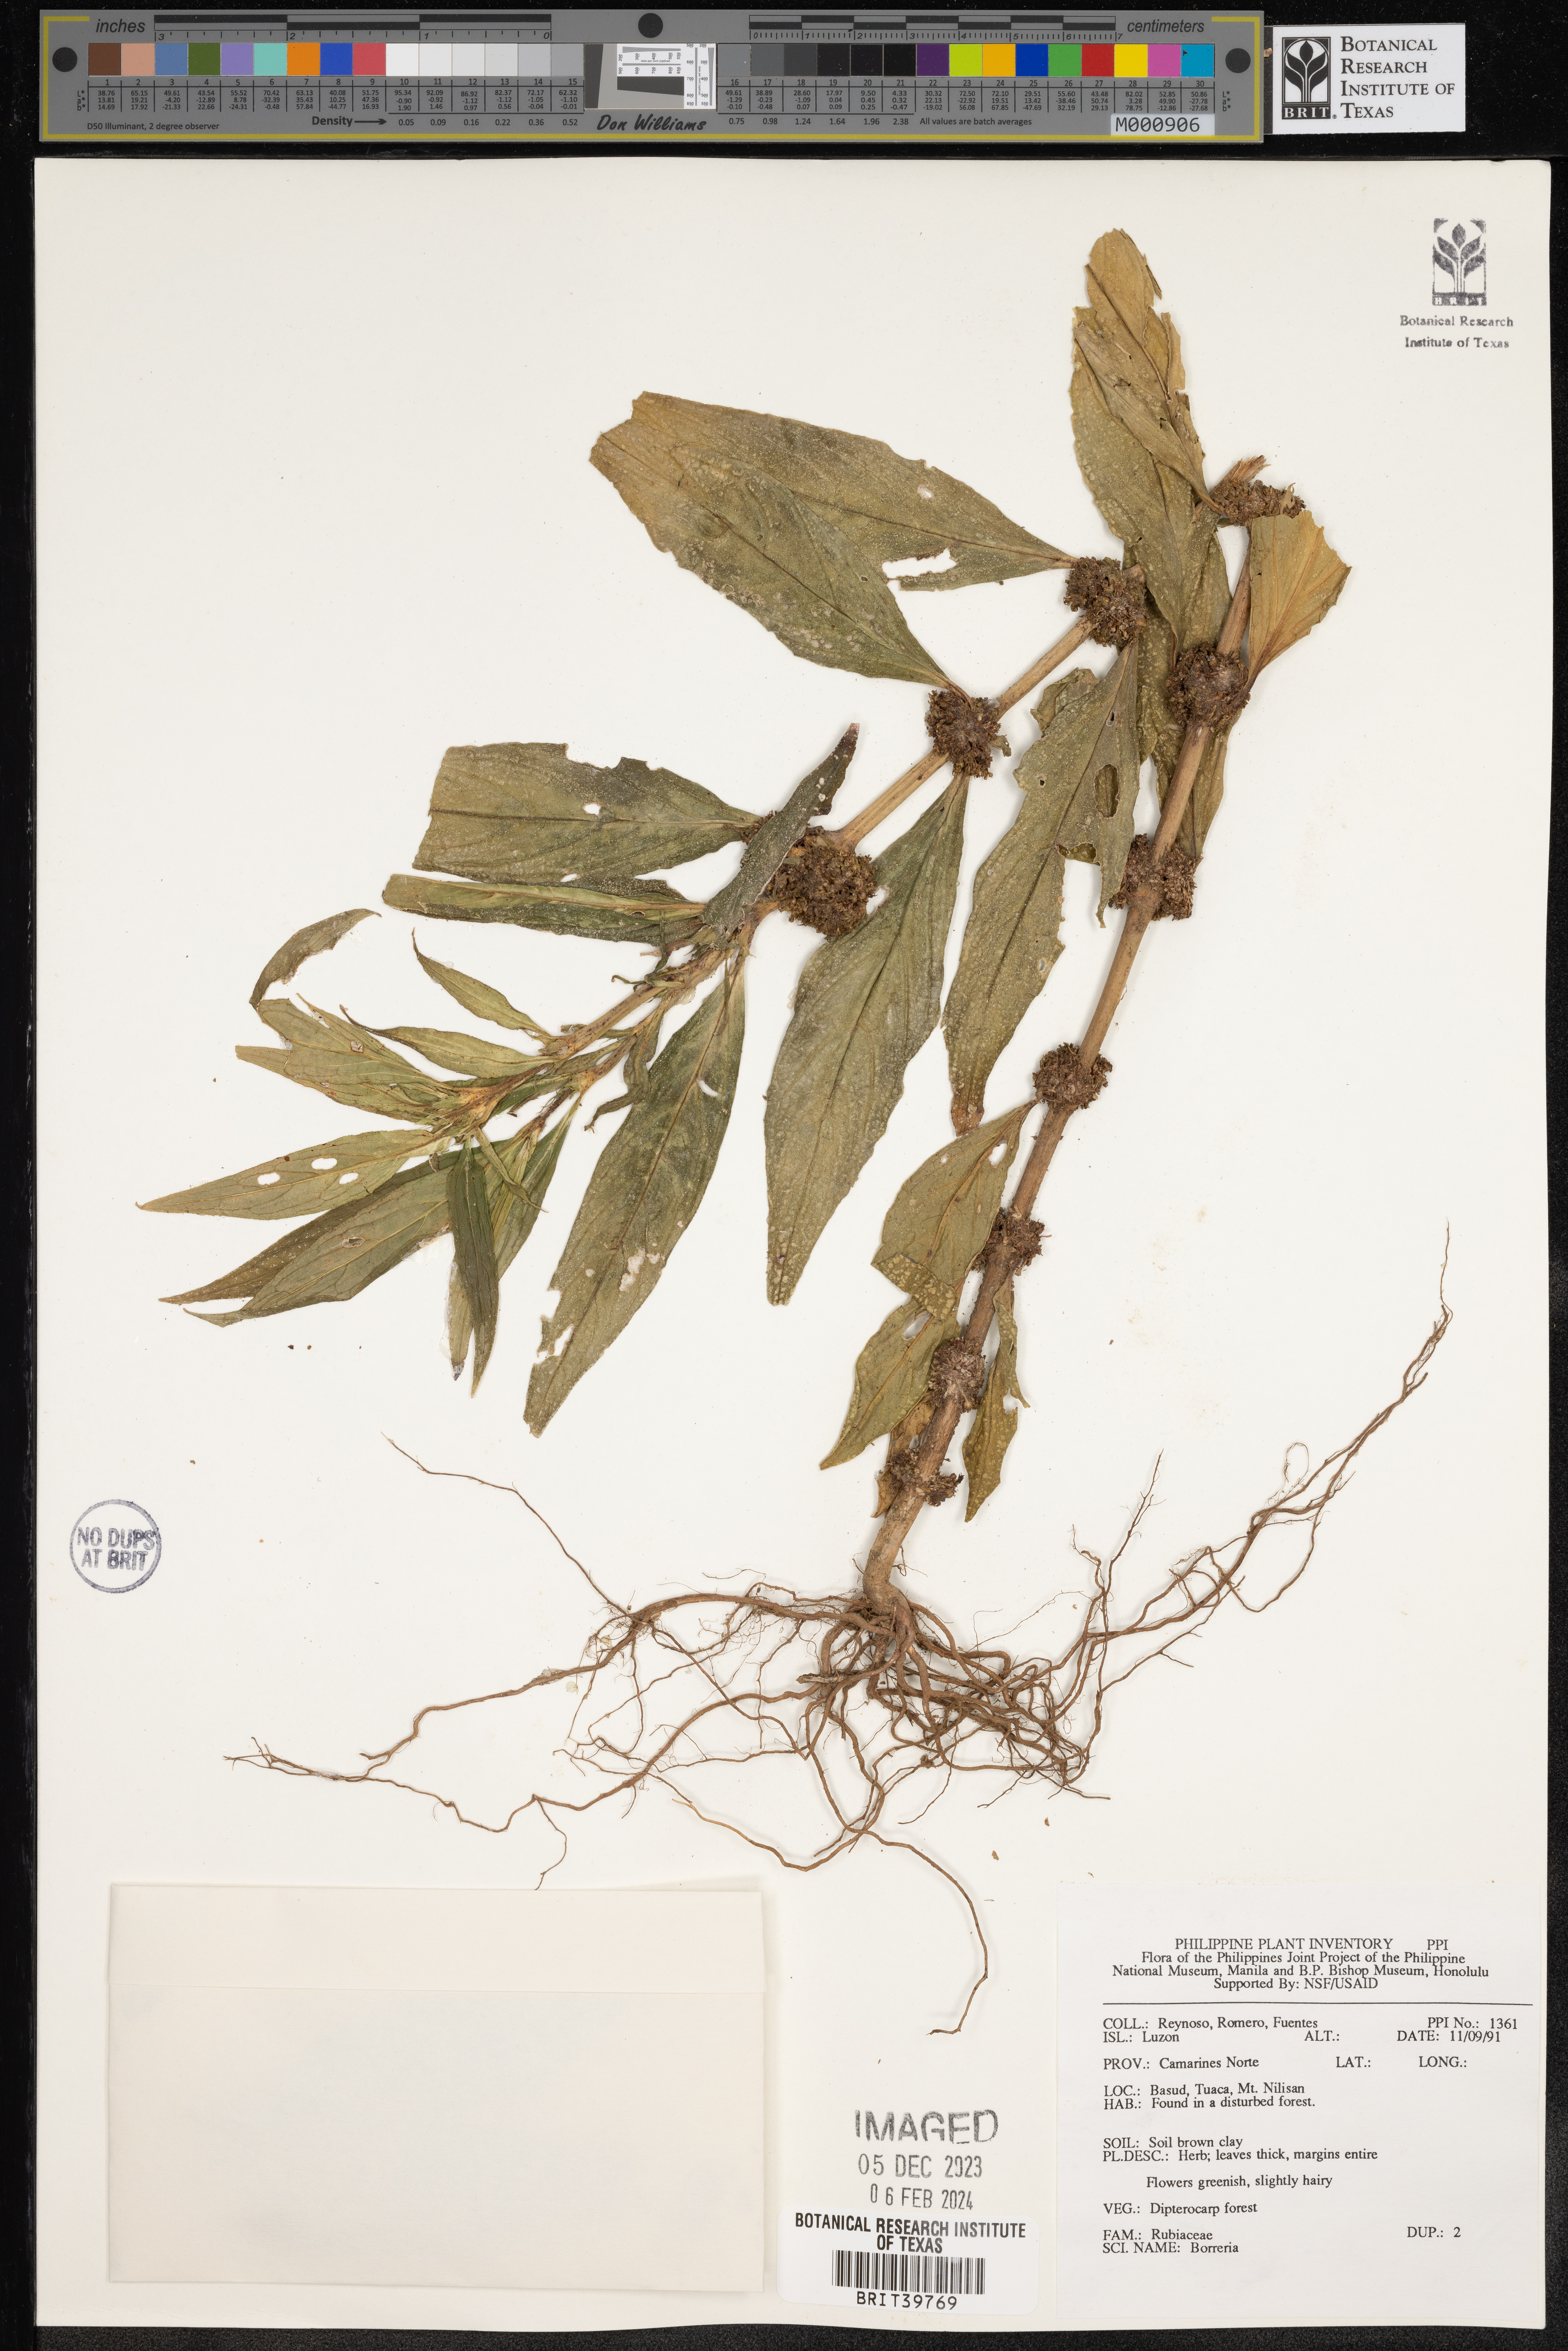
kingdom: Plantae
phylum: Tracheophyta
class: Magnoliopsida
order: Gentianales
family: Rubiaceae
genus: Spermacoce
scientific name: Spermacoce
